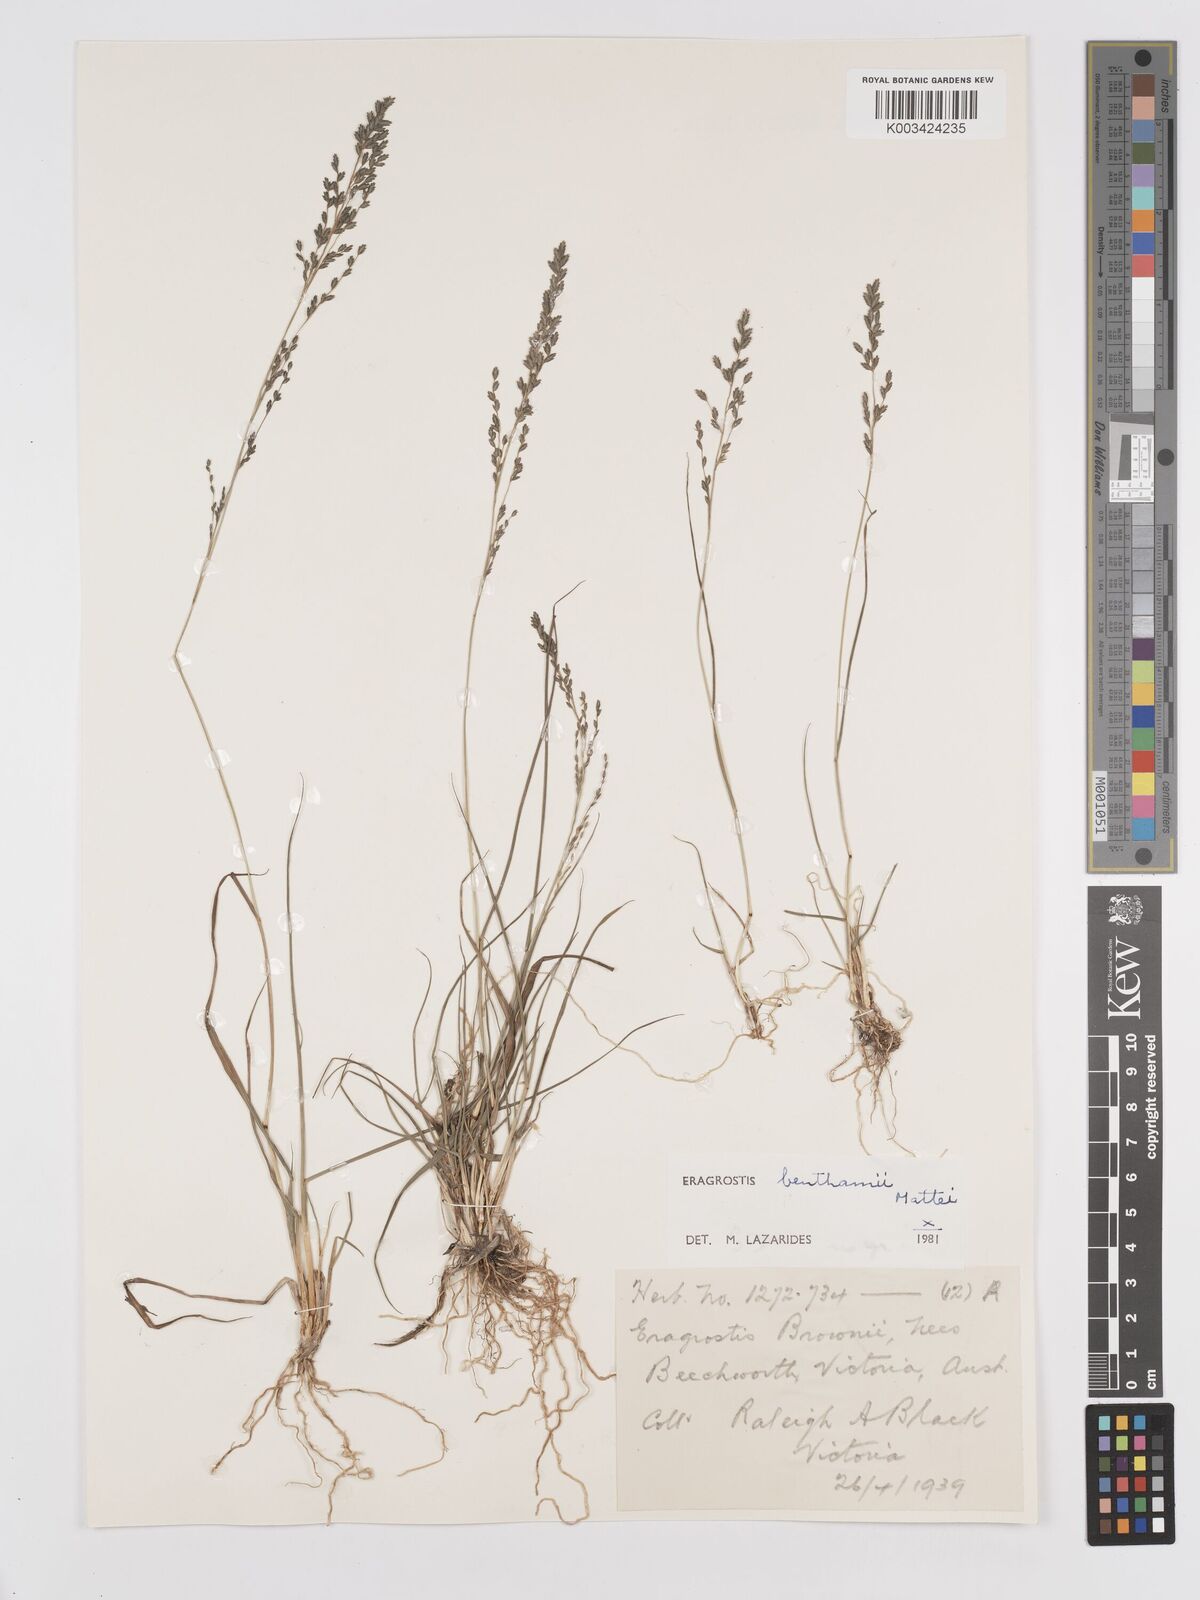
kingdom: Plantae
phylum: Tracheophyta
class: Liliopsida
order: Poales
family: Poaceae
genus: Eragrostis
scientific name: Eragrostis brownii
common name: Lovegrass
